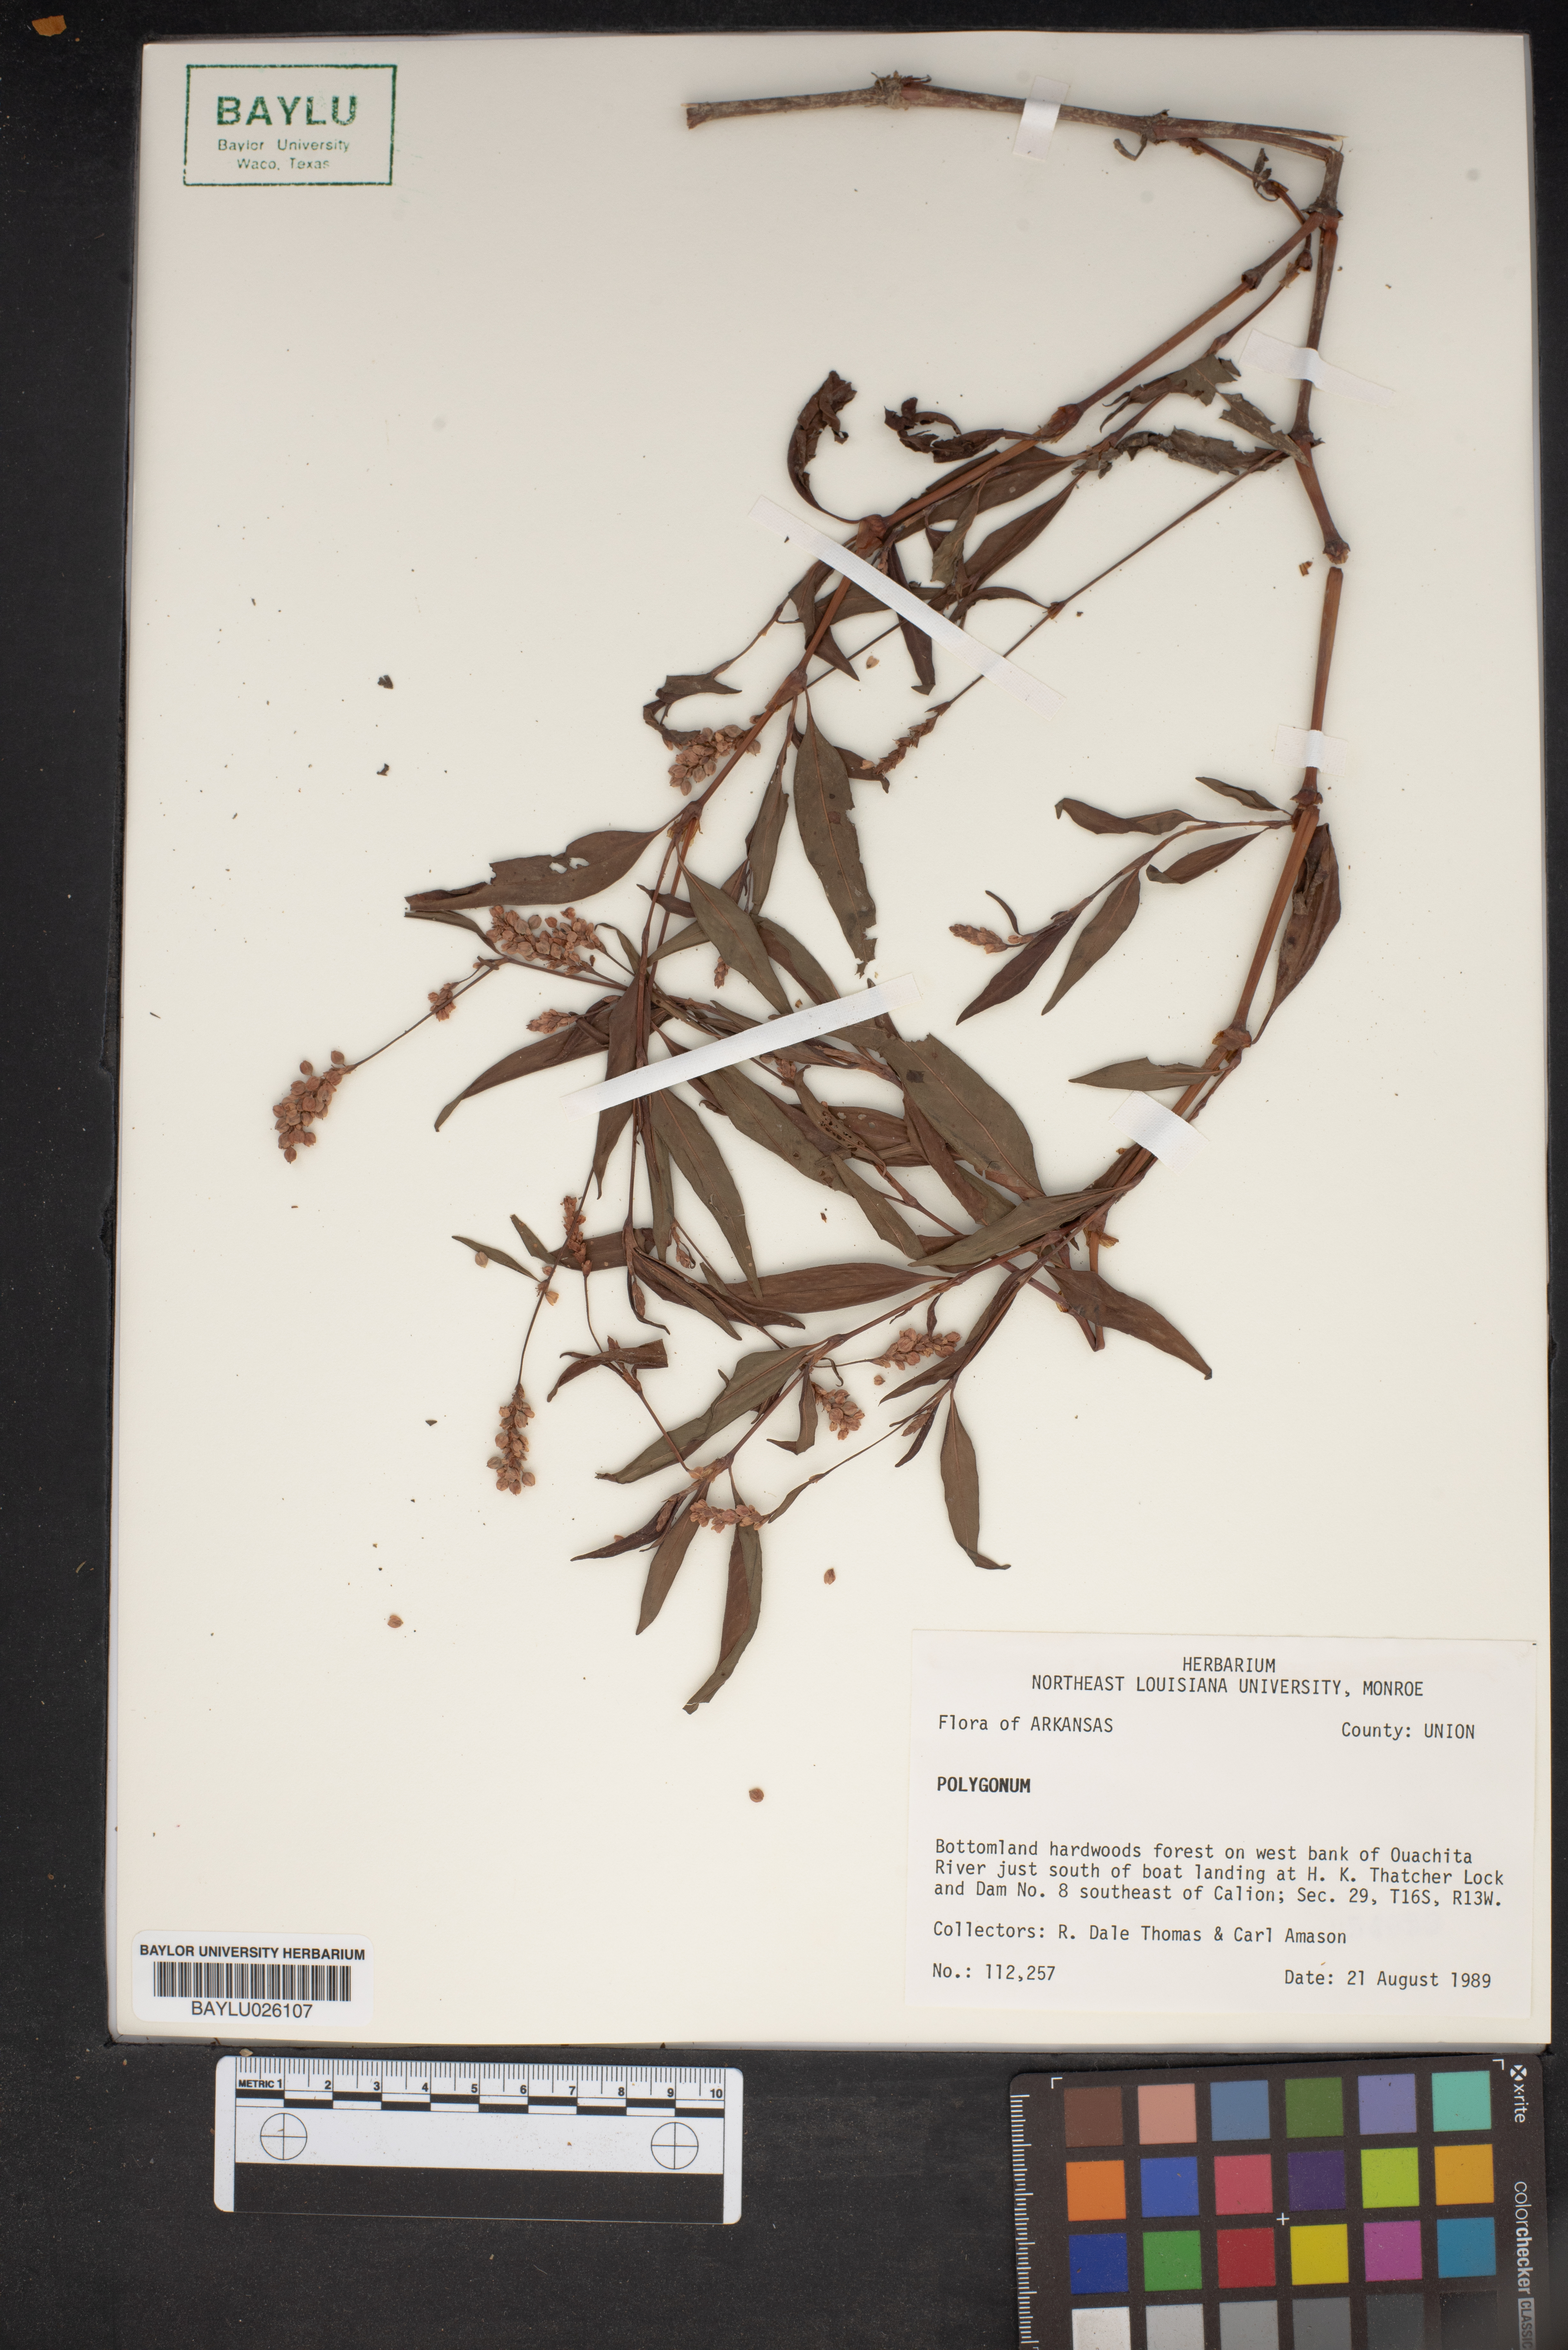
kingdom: Plantae
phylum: Tracheophyta
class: Magnoliopsida
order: Caryophyllales
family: Polygonaceae
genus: Polygonum
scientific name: Polygonum
